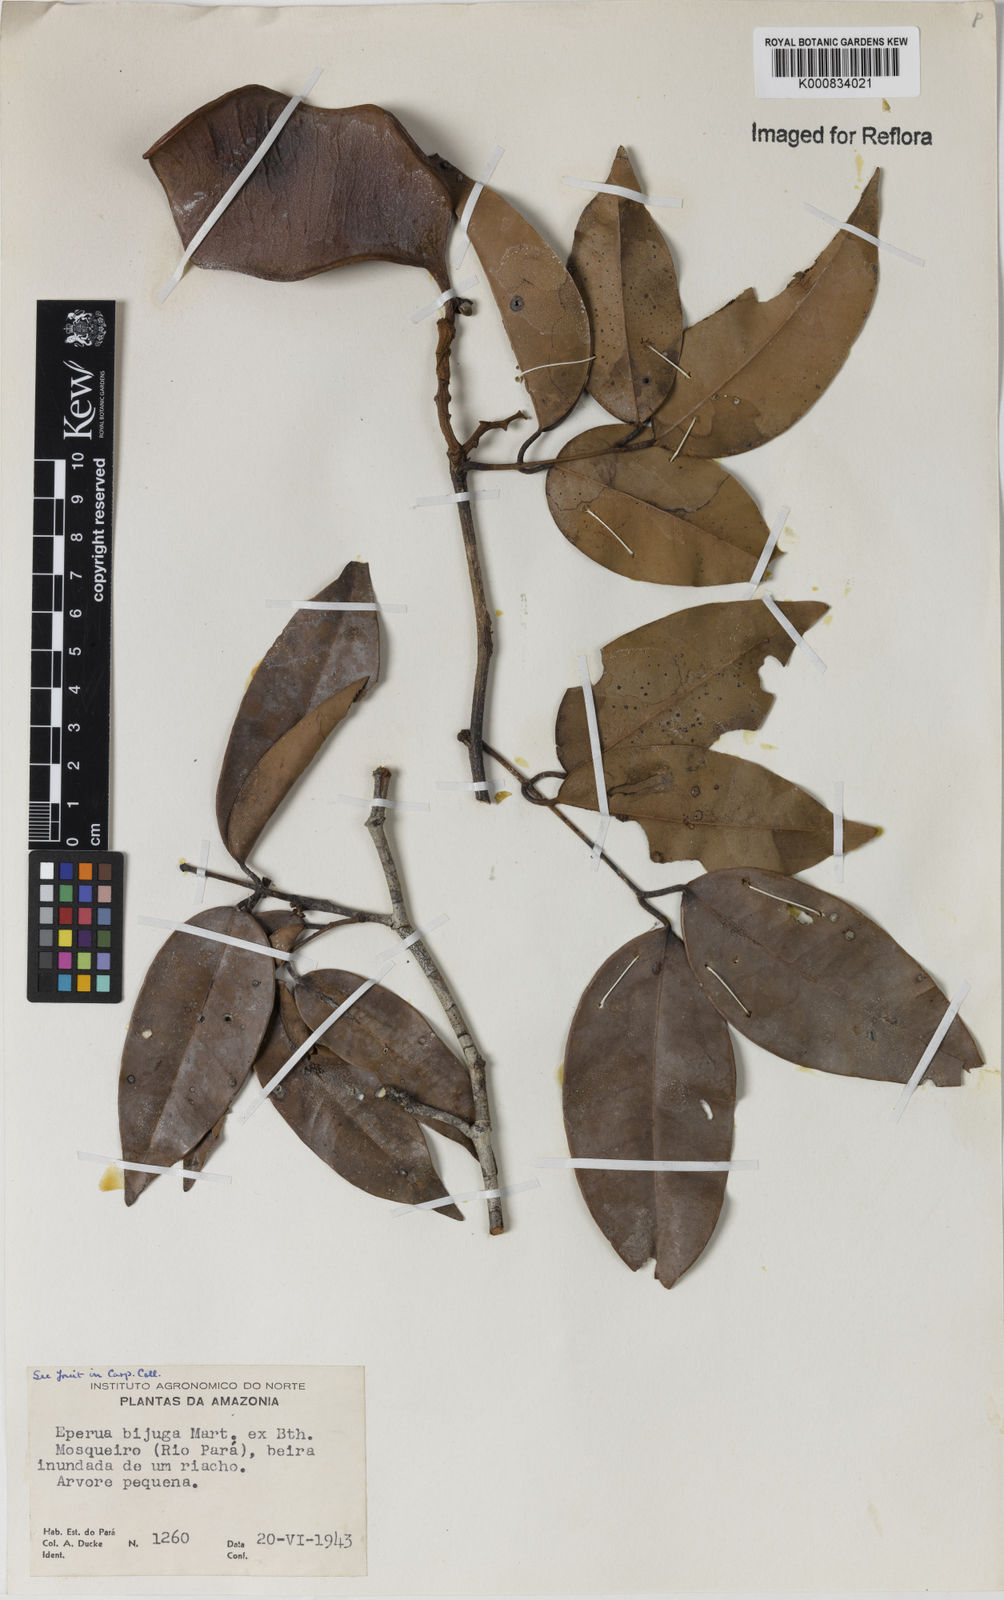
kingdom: Plantae
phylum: Tracheophyta
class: Magnoliopsida
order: Fabales
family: Fabaceae
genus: Eperua
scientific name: Eperua bijuga
